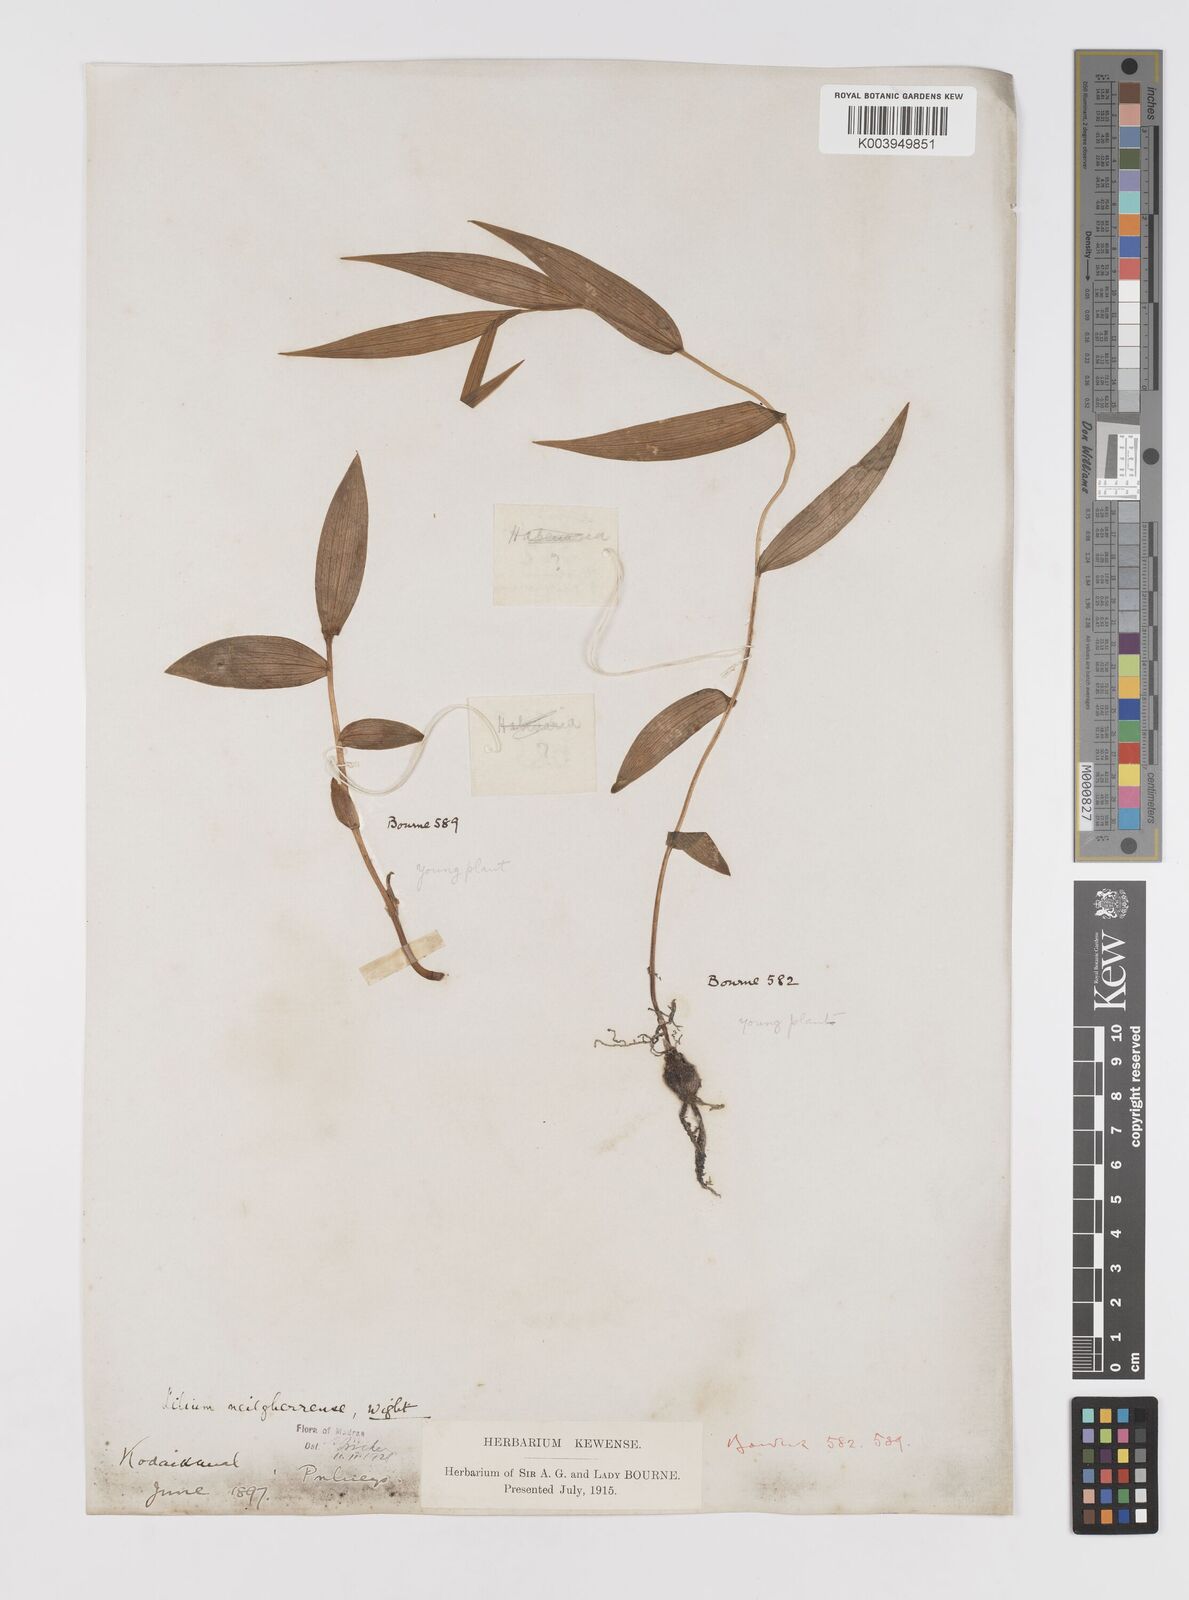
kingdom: Plantae
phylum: Tracheophyta
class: Liliopsida
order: Liliales
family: Liliaceae
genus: Lilium
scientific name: Lilium wallichianum
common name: Wallich's lily
